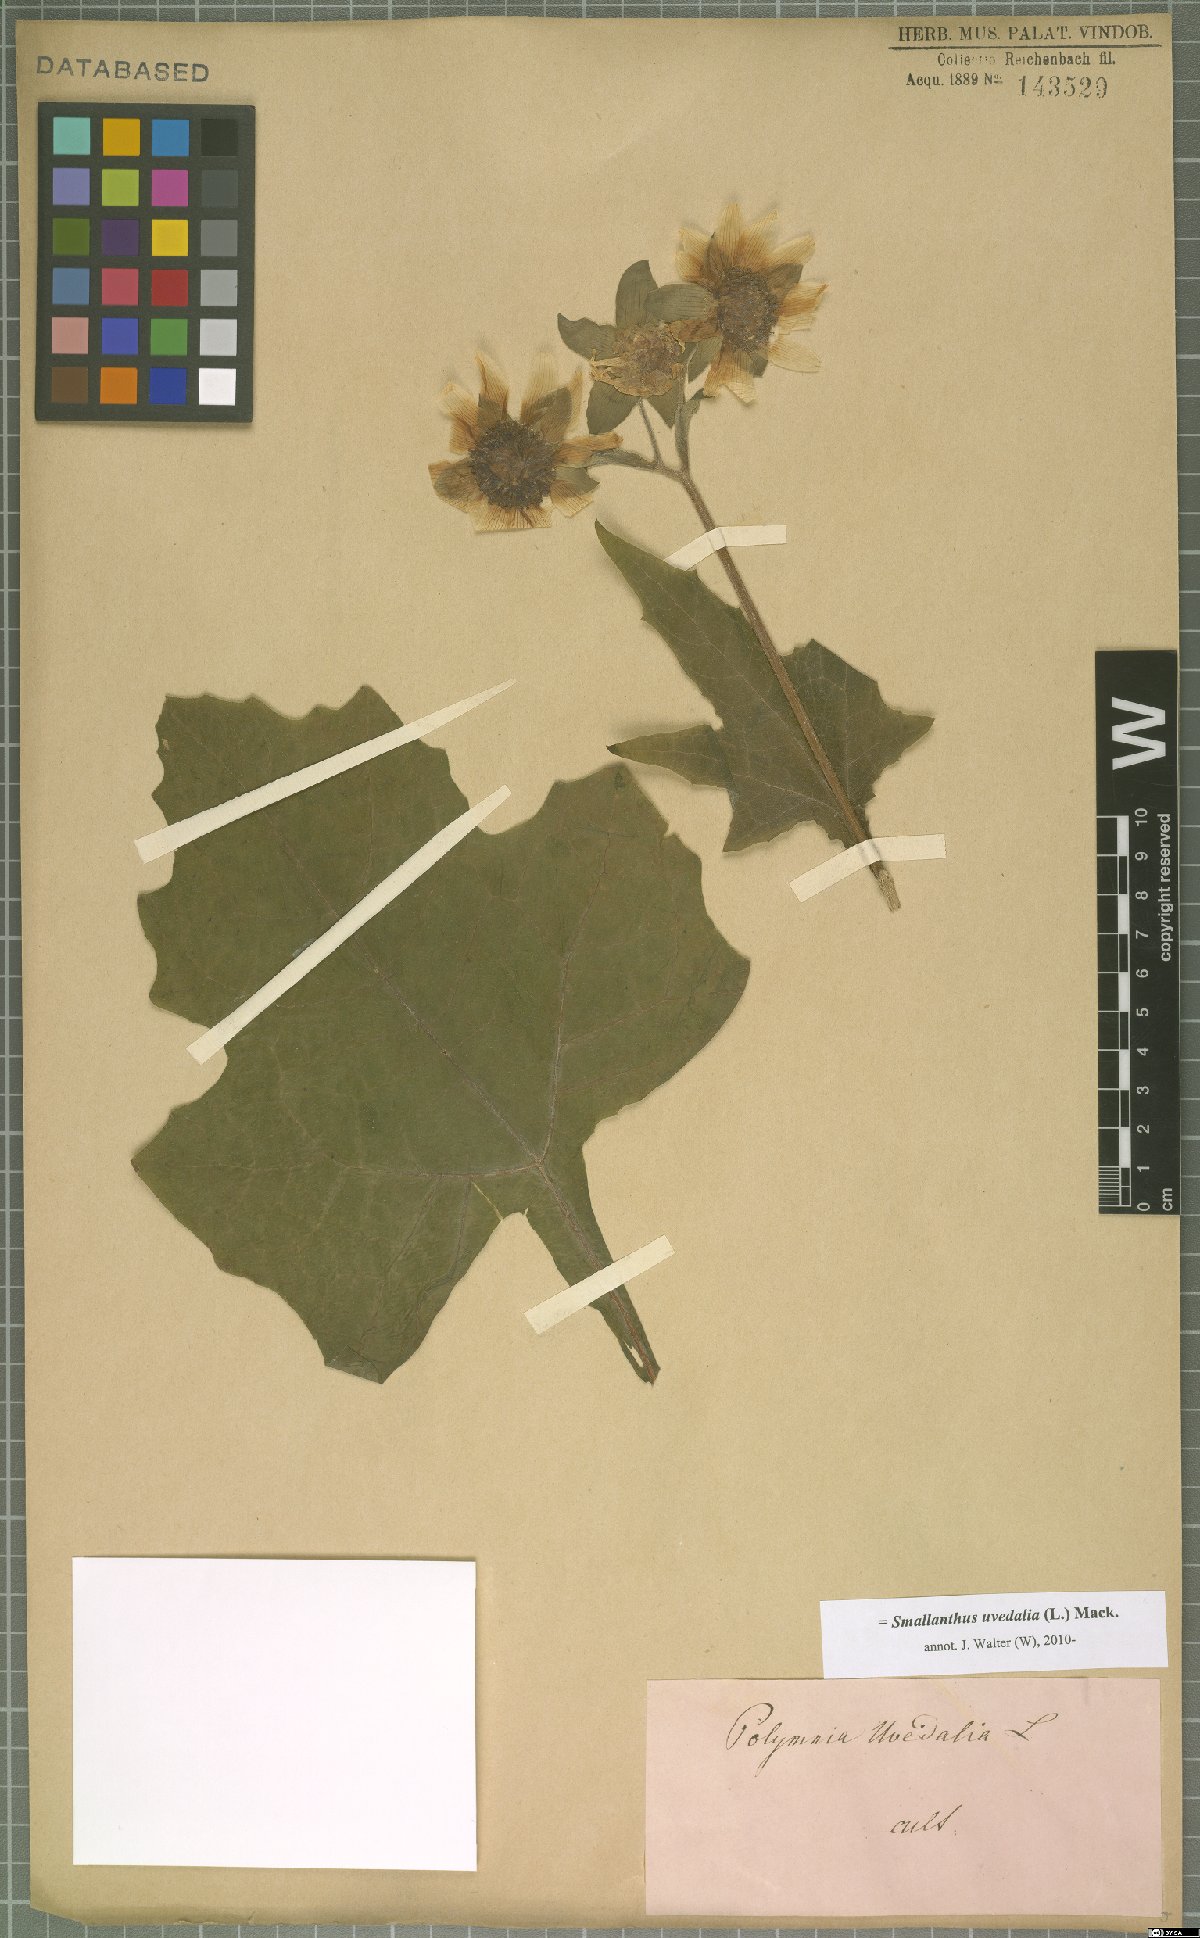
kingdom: Plantae
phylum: Tracheophyta
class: Magnoliopsida
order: Asterales
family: Asteraceae
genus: Smallanthus
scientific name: Smallanthus uvedalia
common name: Bear's-foot
